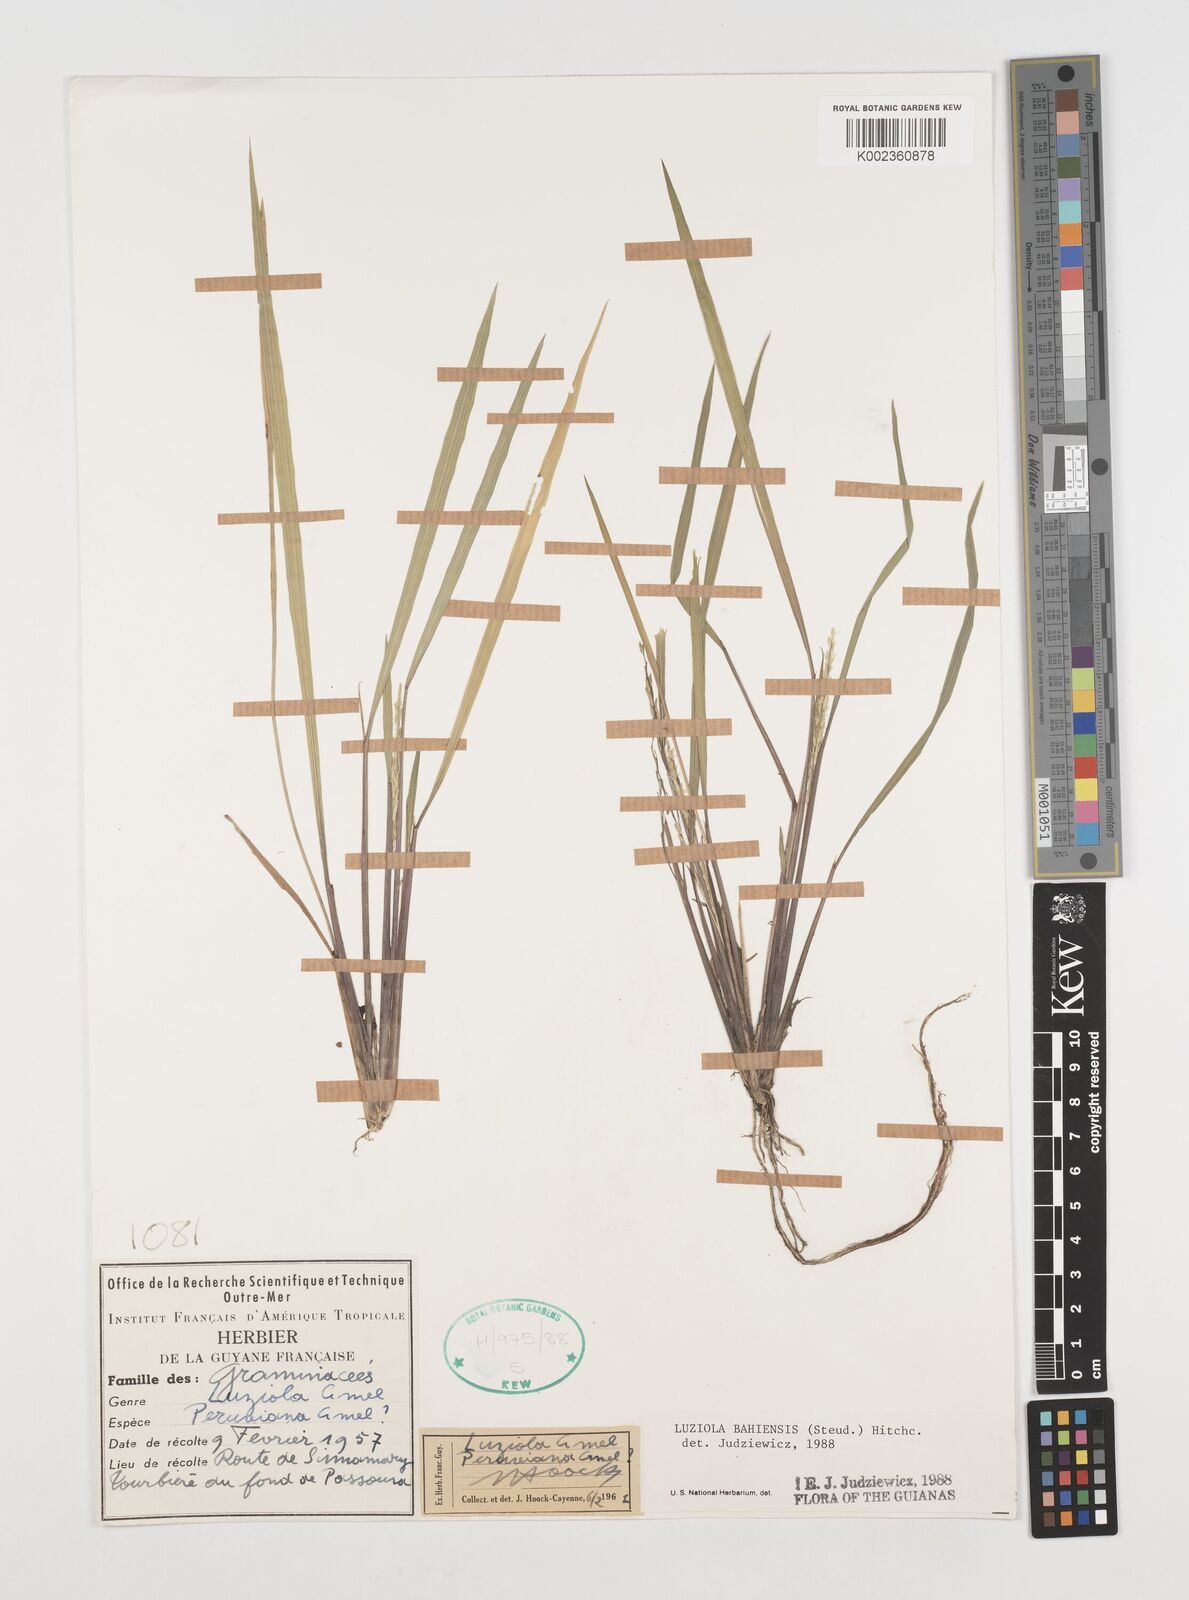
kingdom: Plantae
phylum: Tracheophyta
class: Liliopsida
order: Poales
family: Poaceae
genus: Luziola
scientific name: Luziola bahiensis
